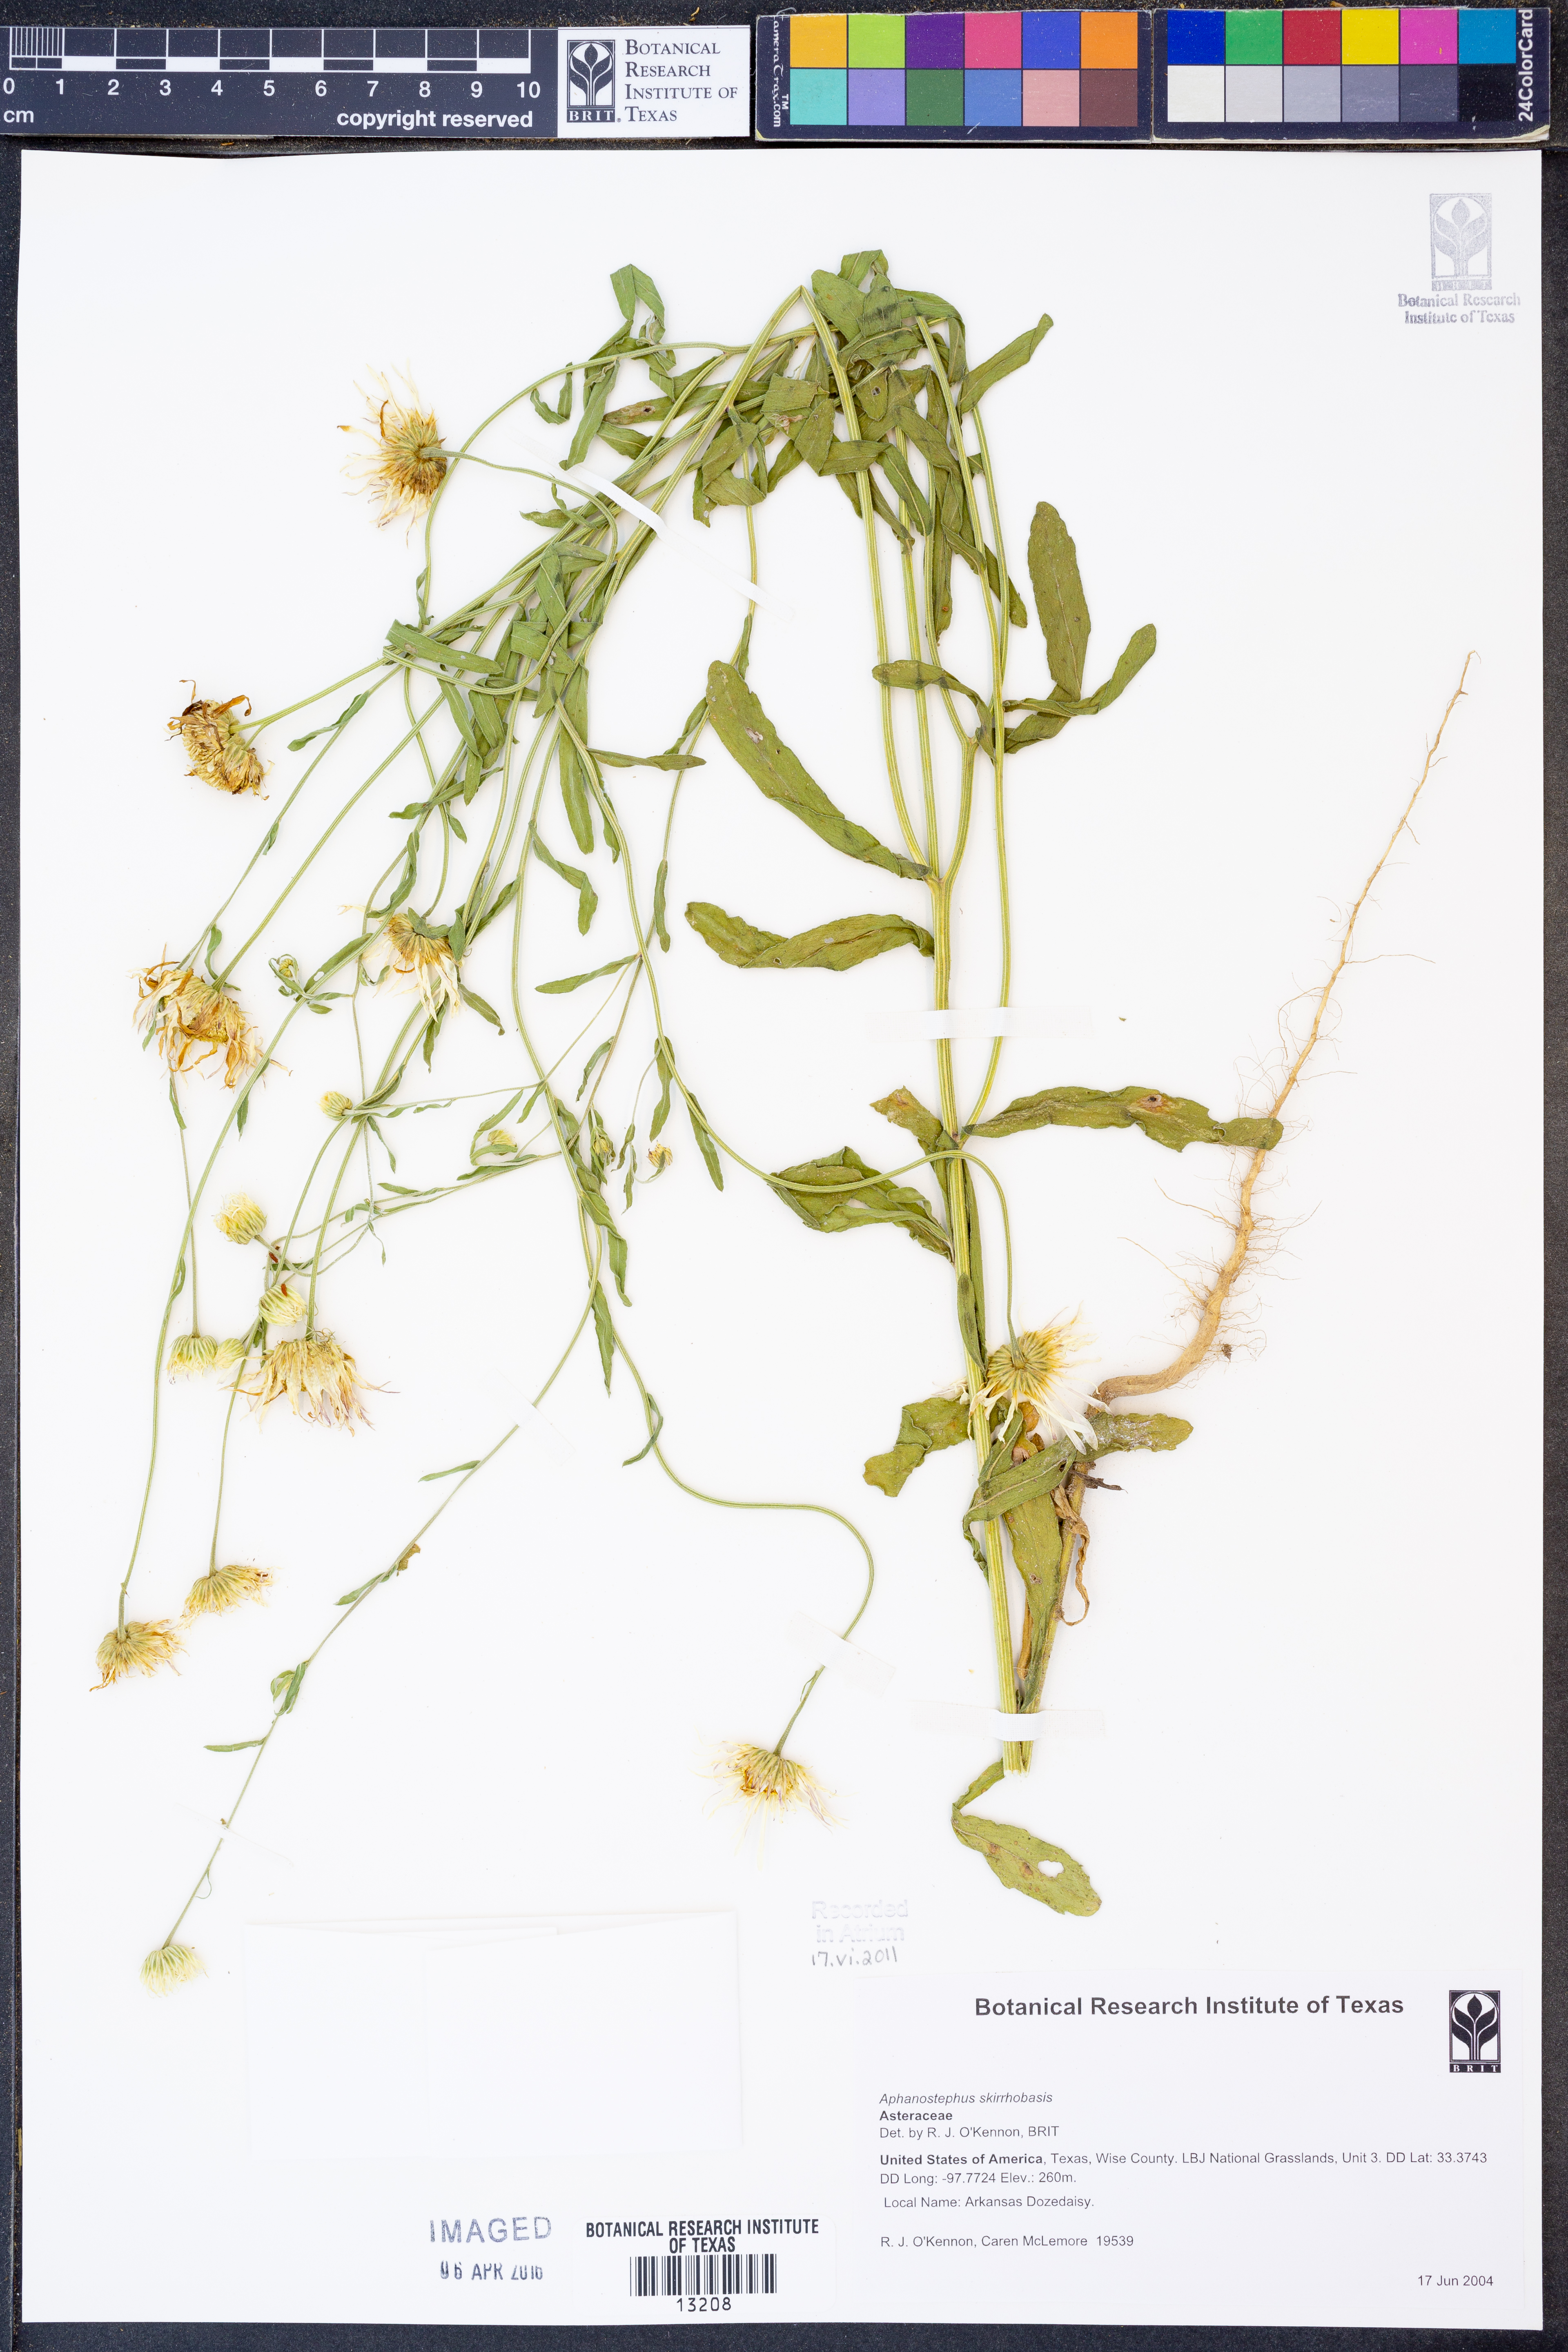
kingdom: Plantae
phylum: Tracheophyta
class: Magnoliopsida
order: Asterales
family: Asteraceae
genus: Aphanostephus
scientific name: Aphanostephus skirrhobasis
